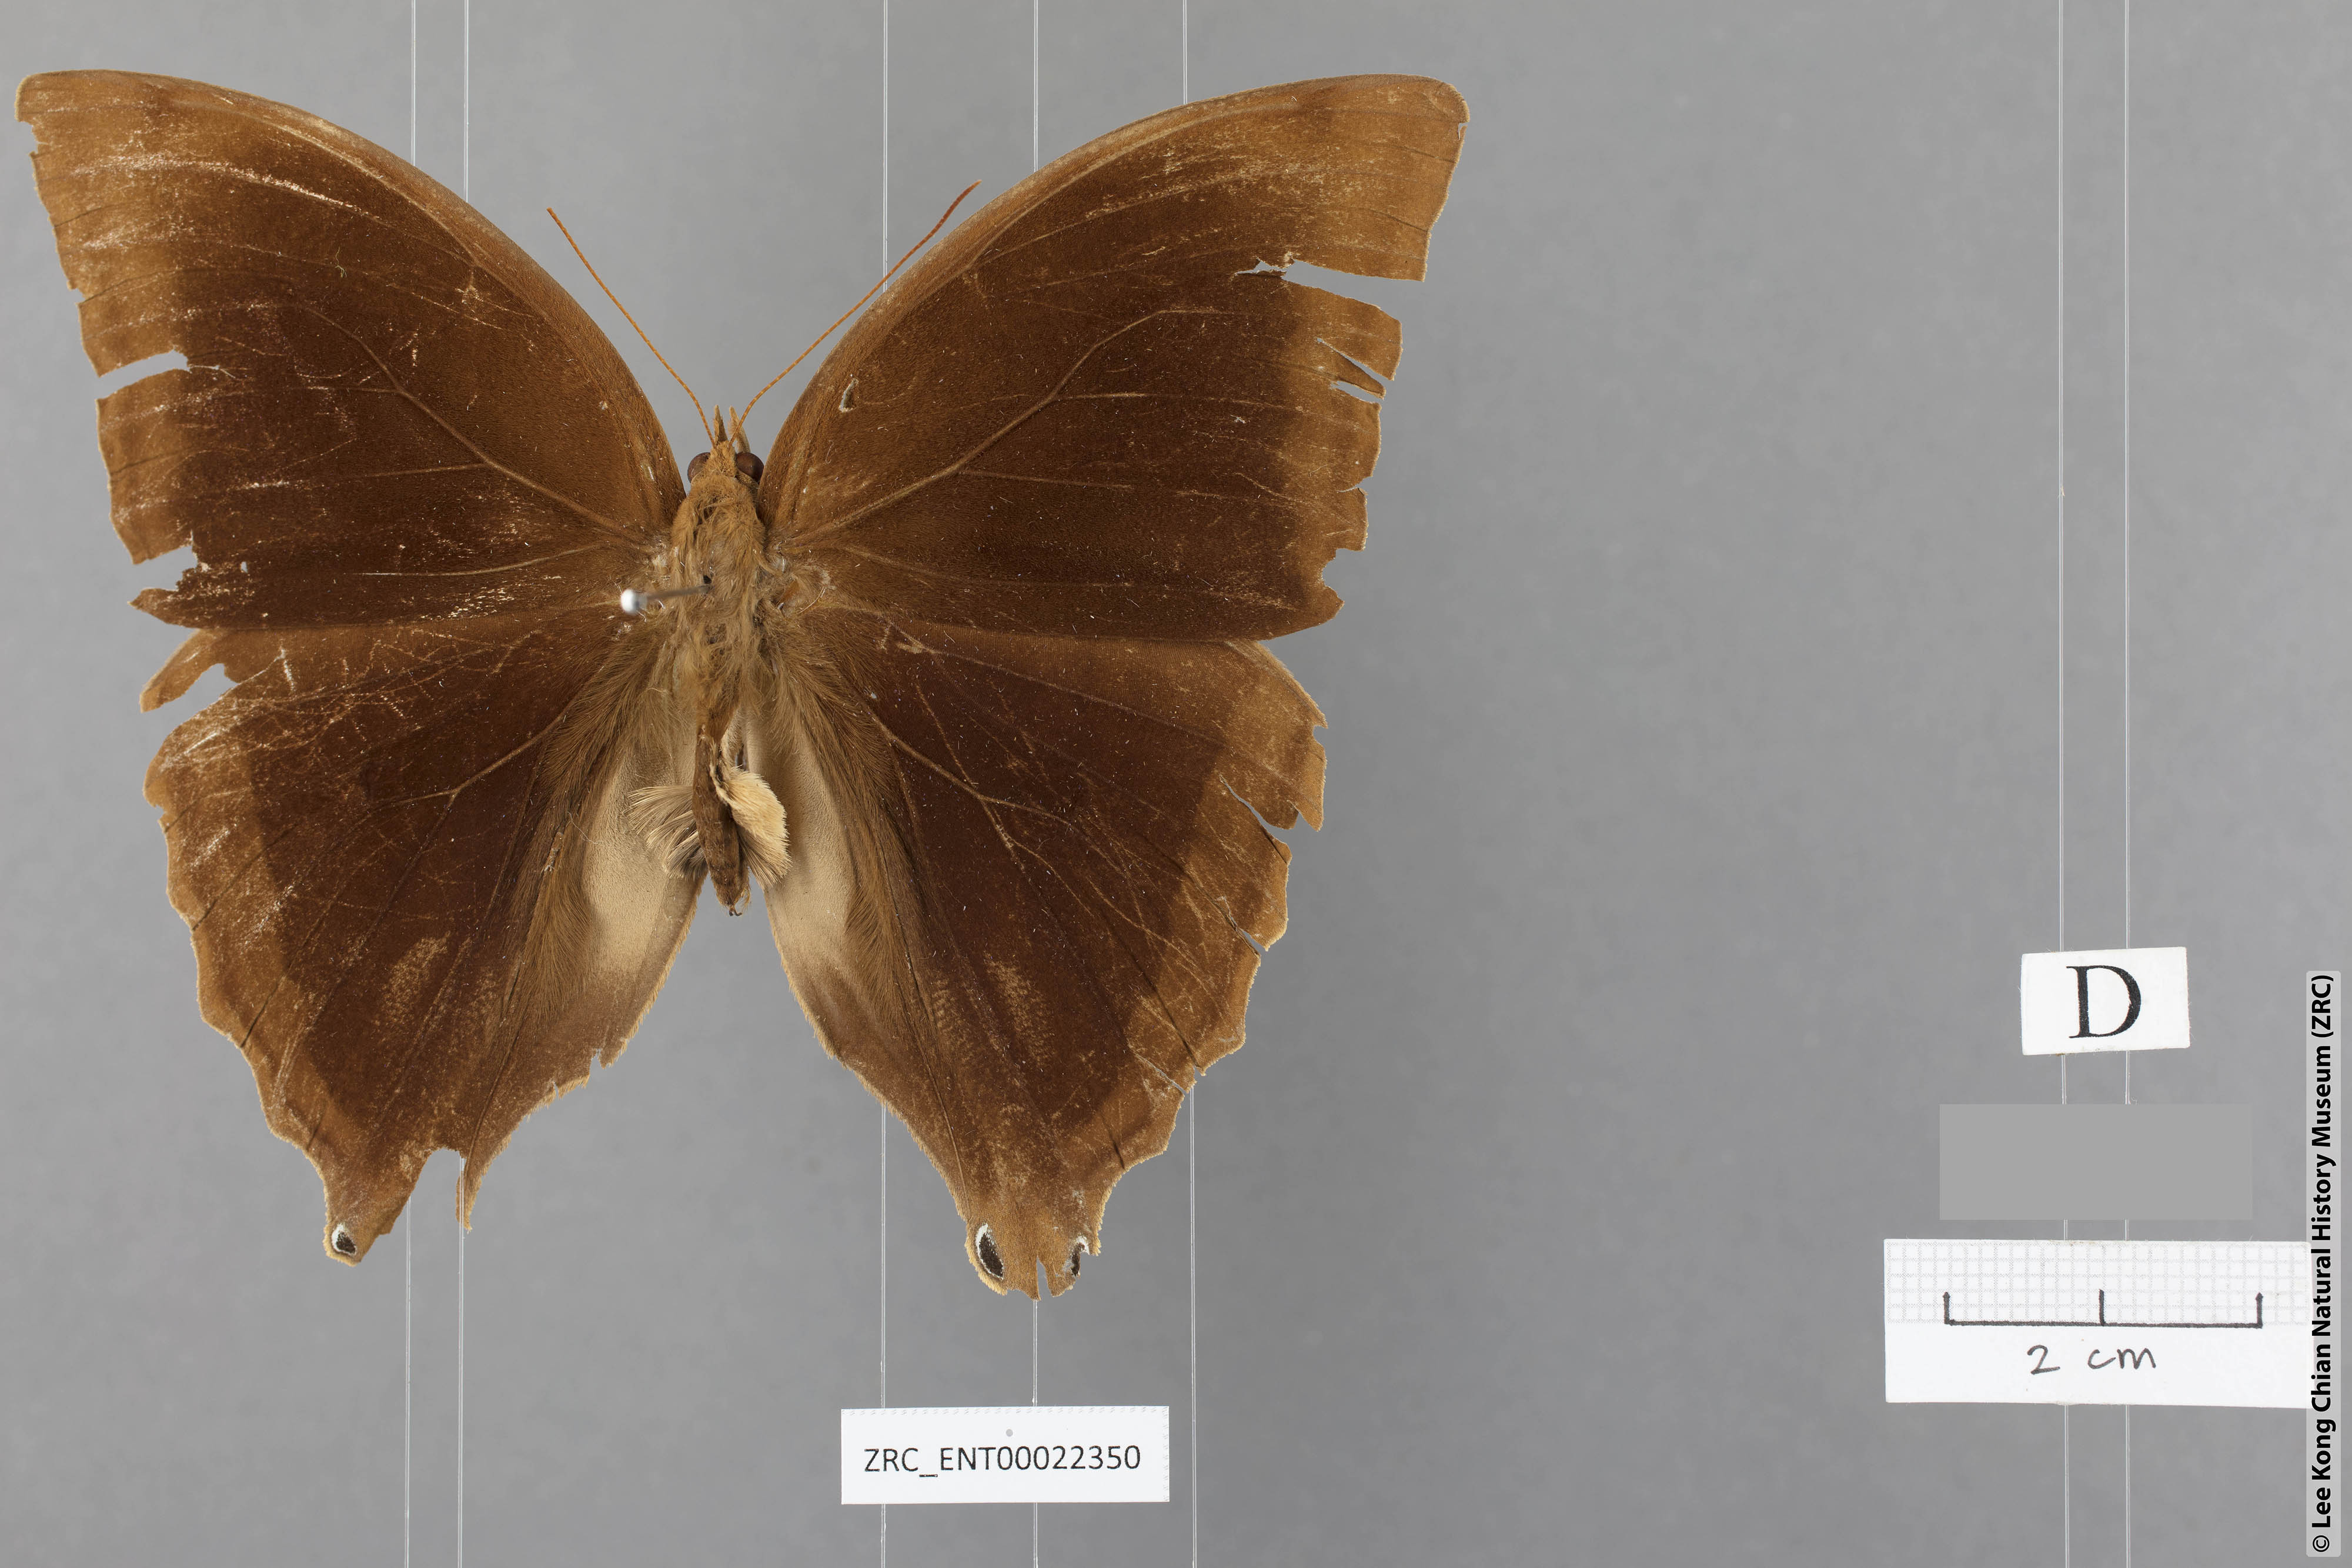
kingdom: Animalia
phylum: Arthropoda
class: Insecta
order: Lepidoptera
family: Nymphalidae
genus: Amathusia
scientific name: Amathusia friderici
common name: Bicolor-haired palm king
